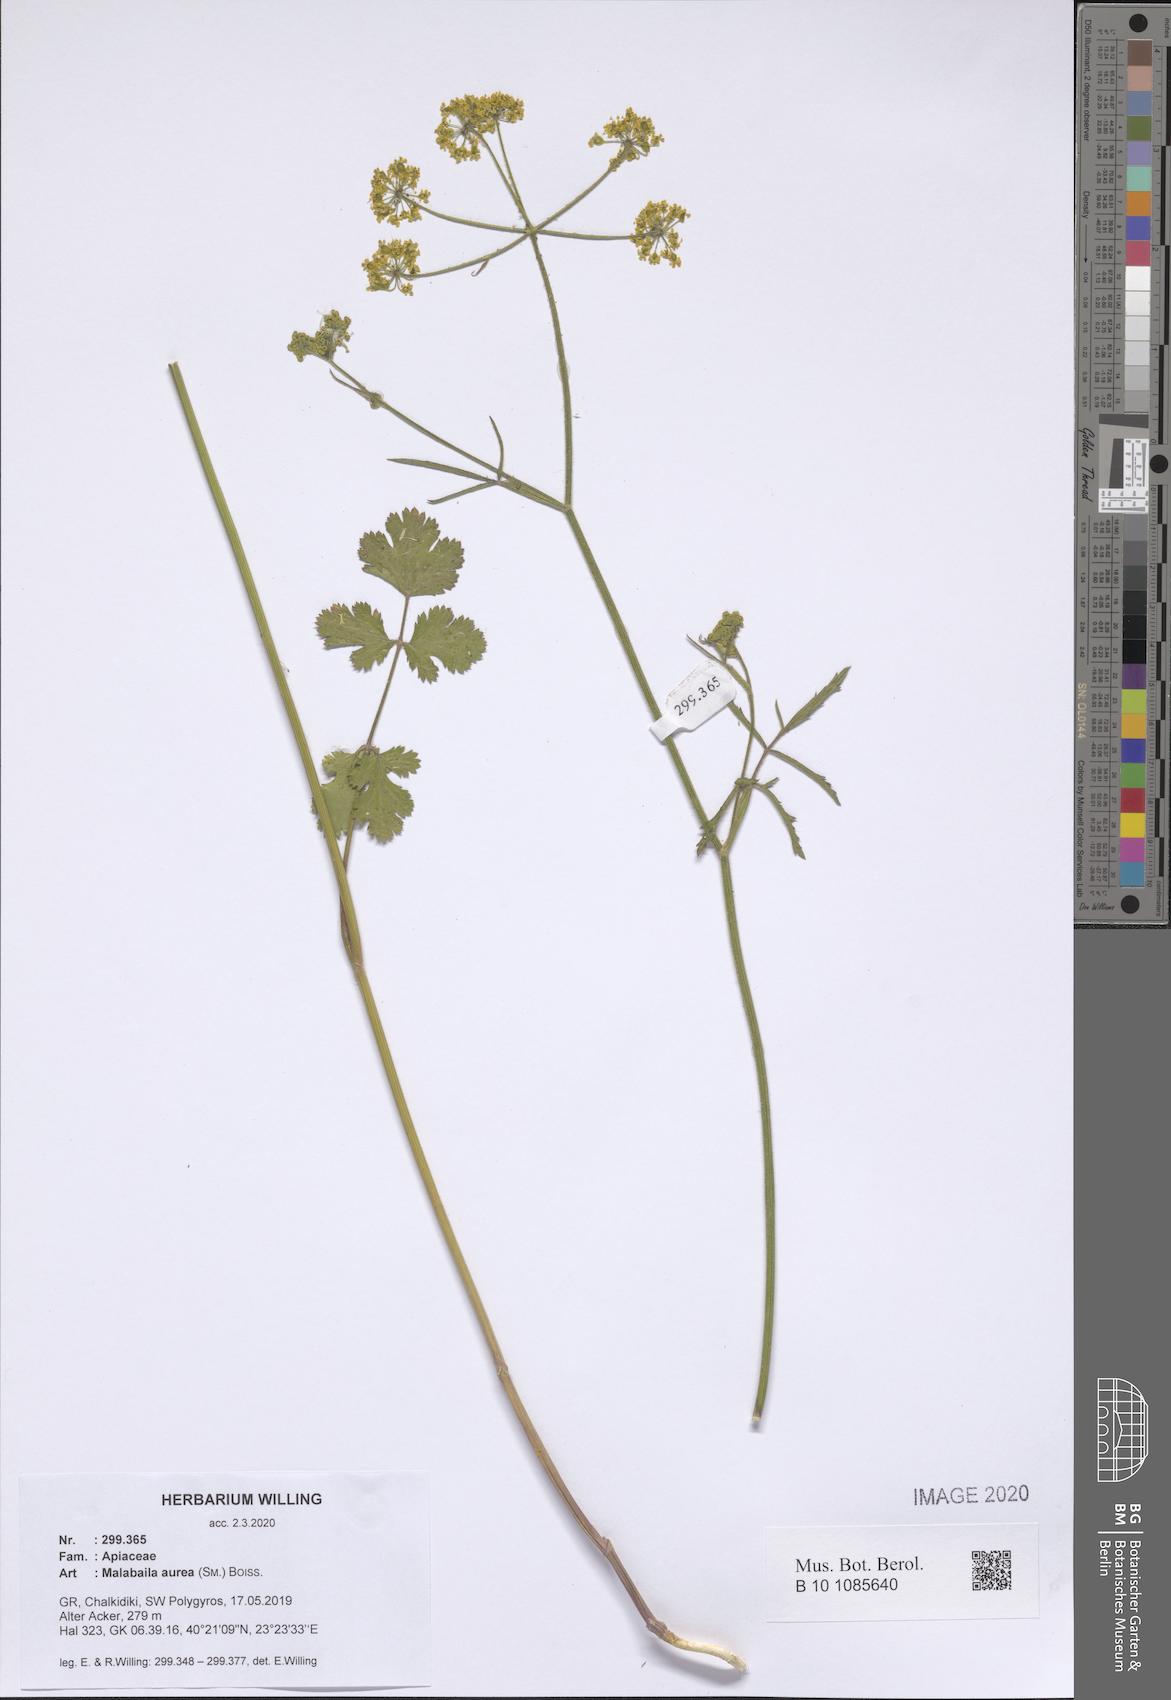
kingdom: Plantae
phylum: Tracheophyta
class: Magnoliopsida
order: Apiales
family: Apiaceae
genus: Leiotulus
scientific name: Leiotulus aureus
